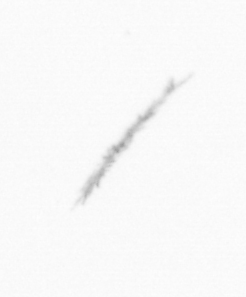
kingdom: Chromista
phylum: Ochrophyta
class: Bacillariophyceae
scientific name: Bacillariophyceae
